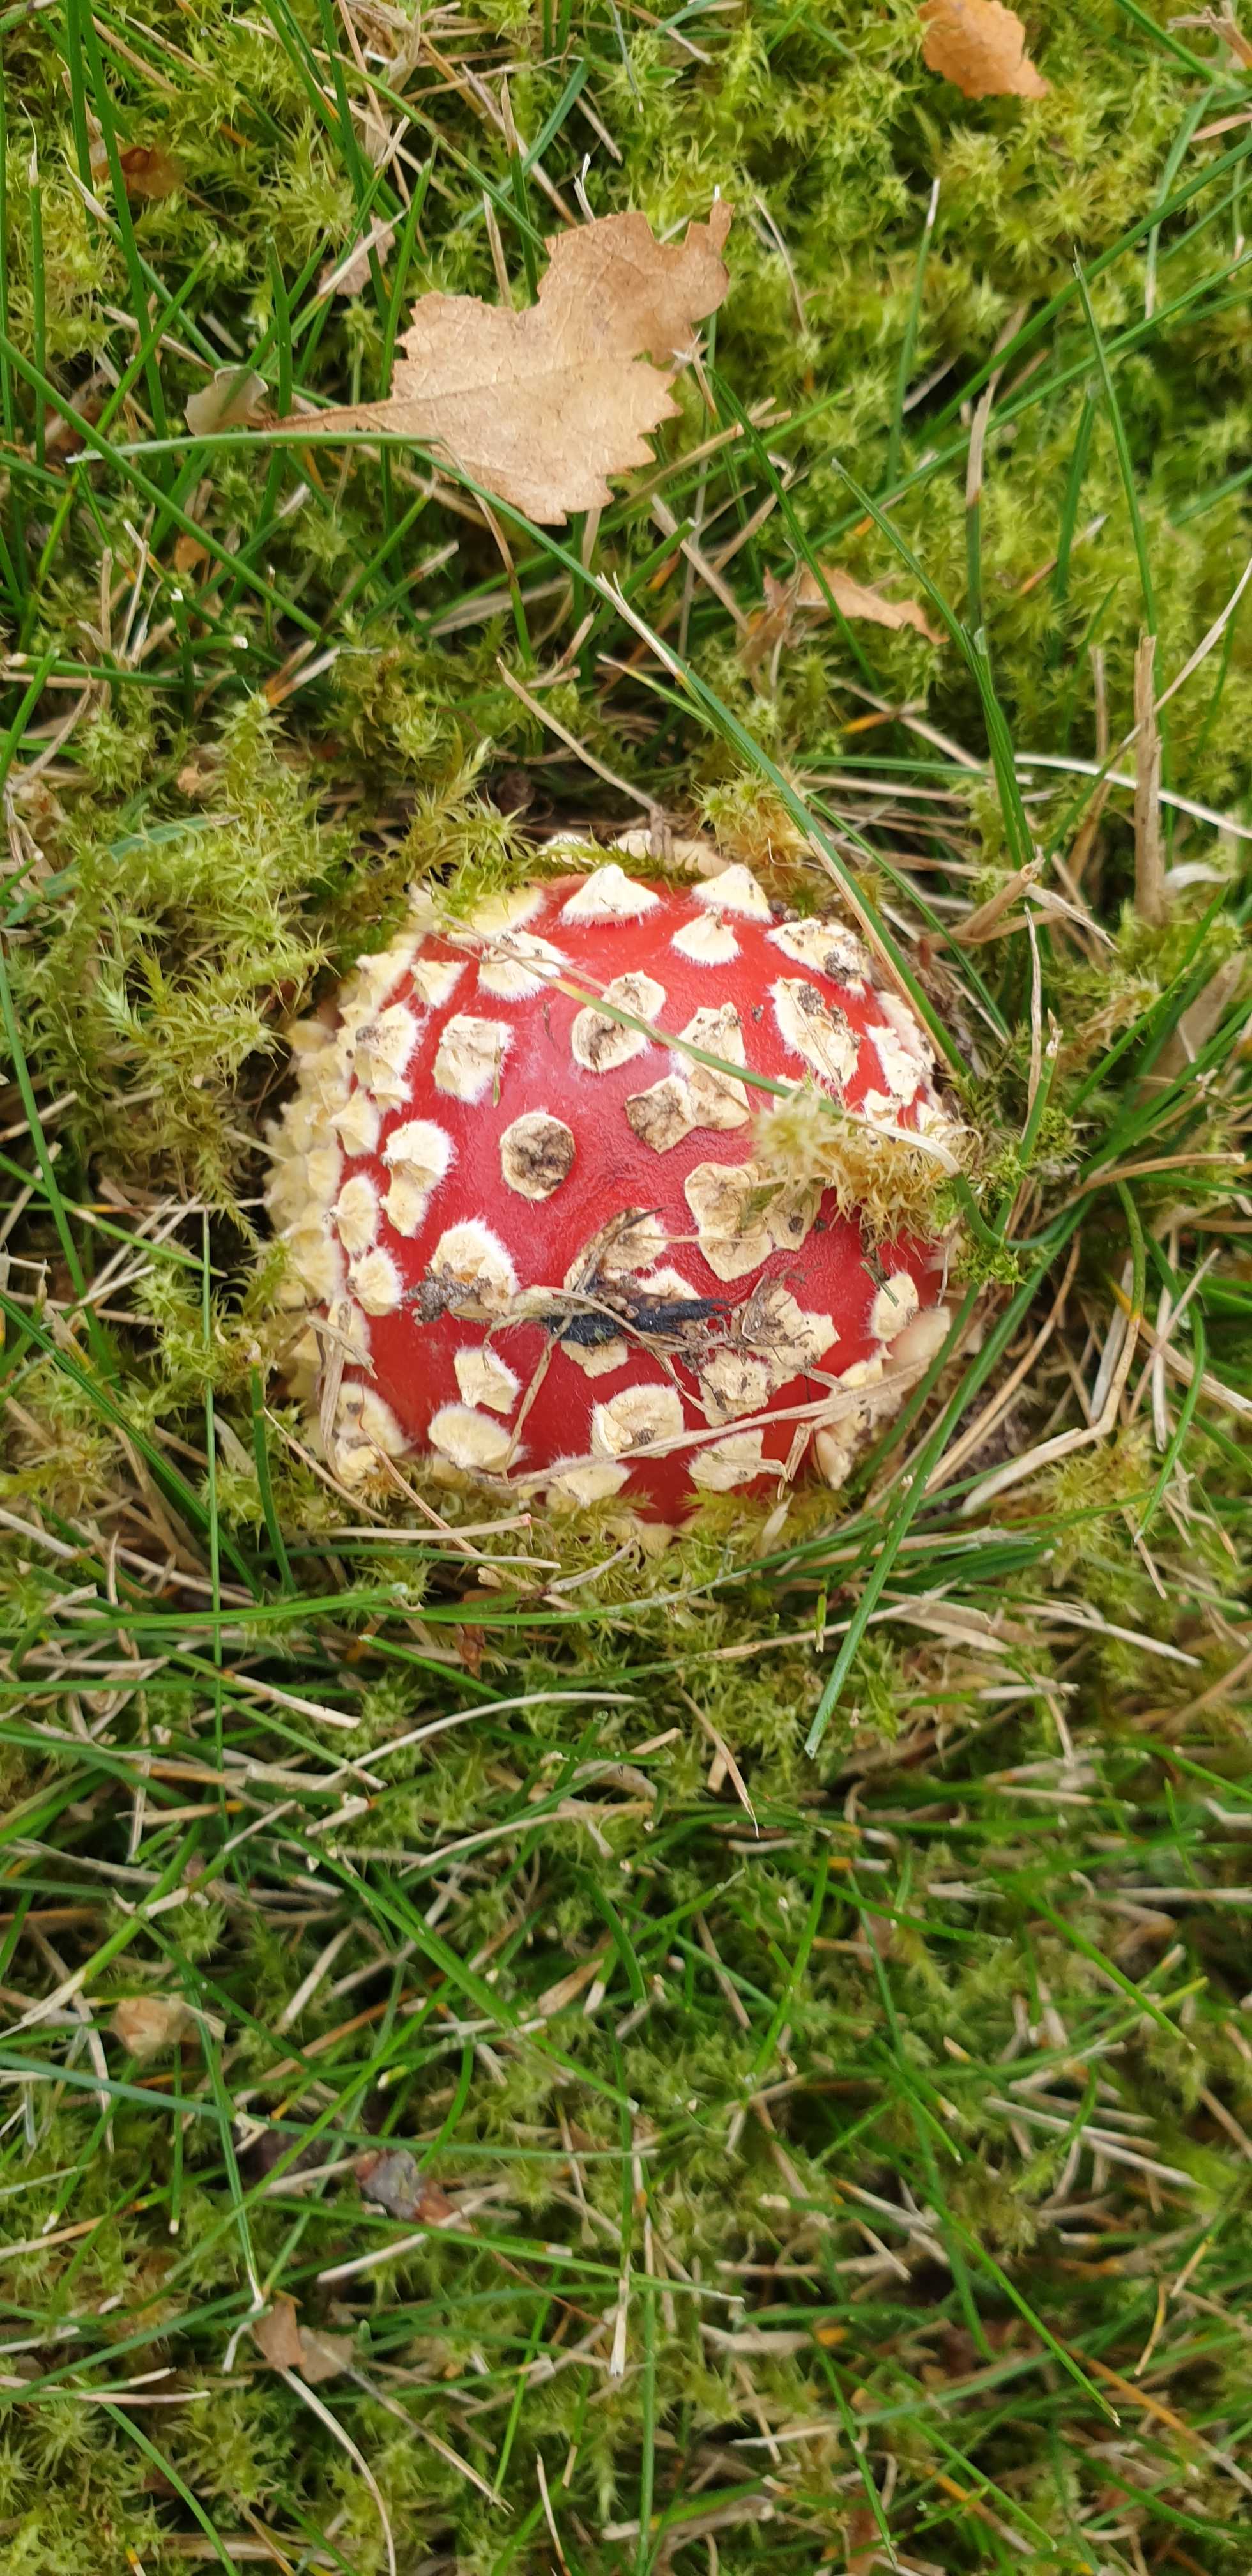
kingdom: Fungi
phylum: Basidiomycota
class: Agaricomycetes
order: Agaricales
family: Amanitaceae
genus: Amanita
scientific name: Amanita muscaria
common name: rød fluesvamp
